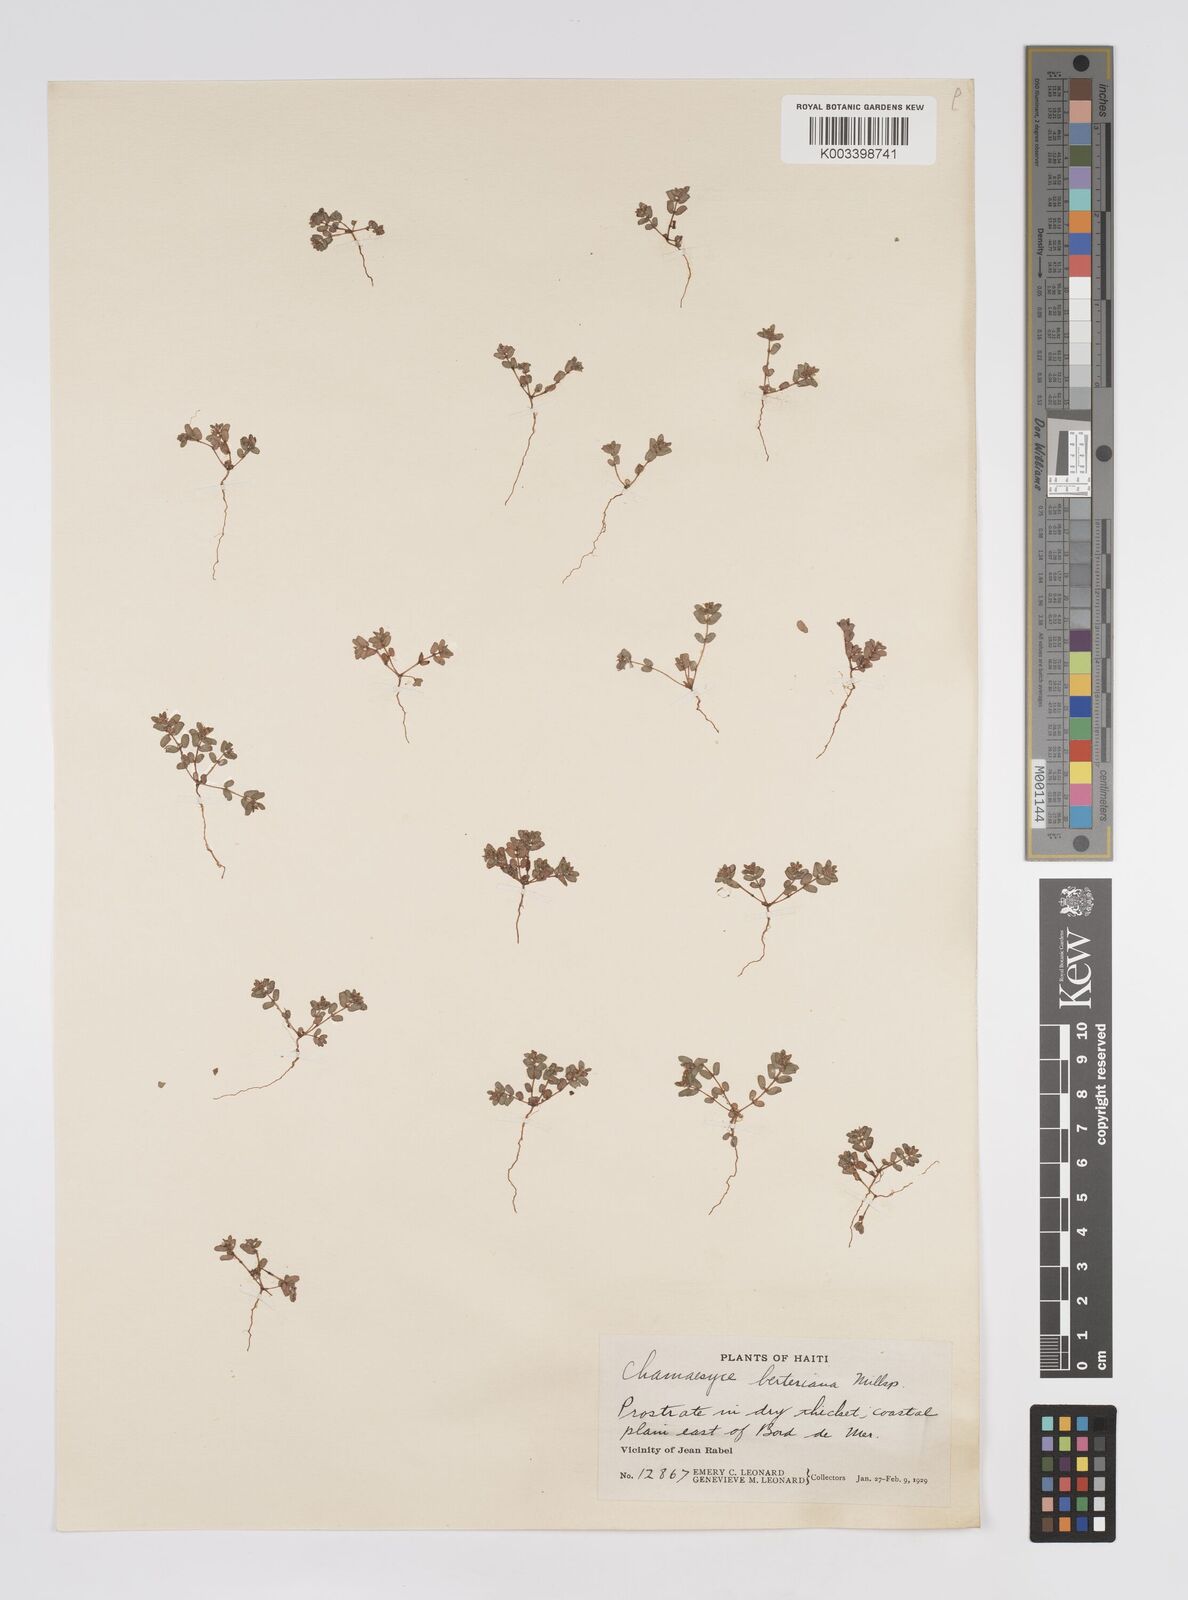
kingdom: Plantae
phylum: Tracheophyta
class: Magnoliopsida
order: Malpighiales
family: Euphorbiaceae
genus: Euphorbia
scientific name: Euphorbia berteroana
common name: Bertero's sandmat
